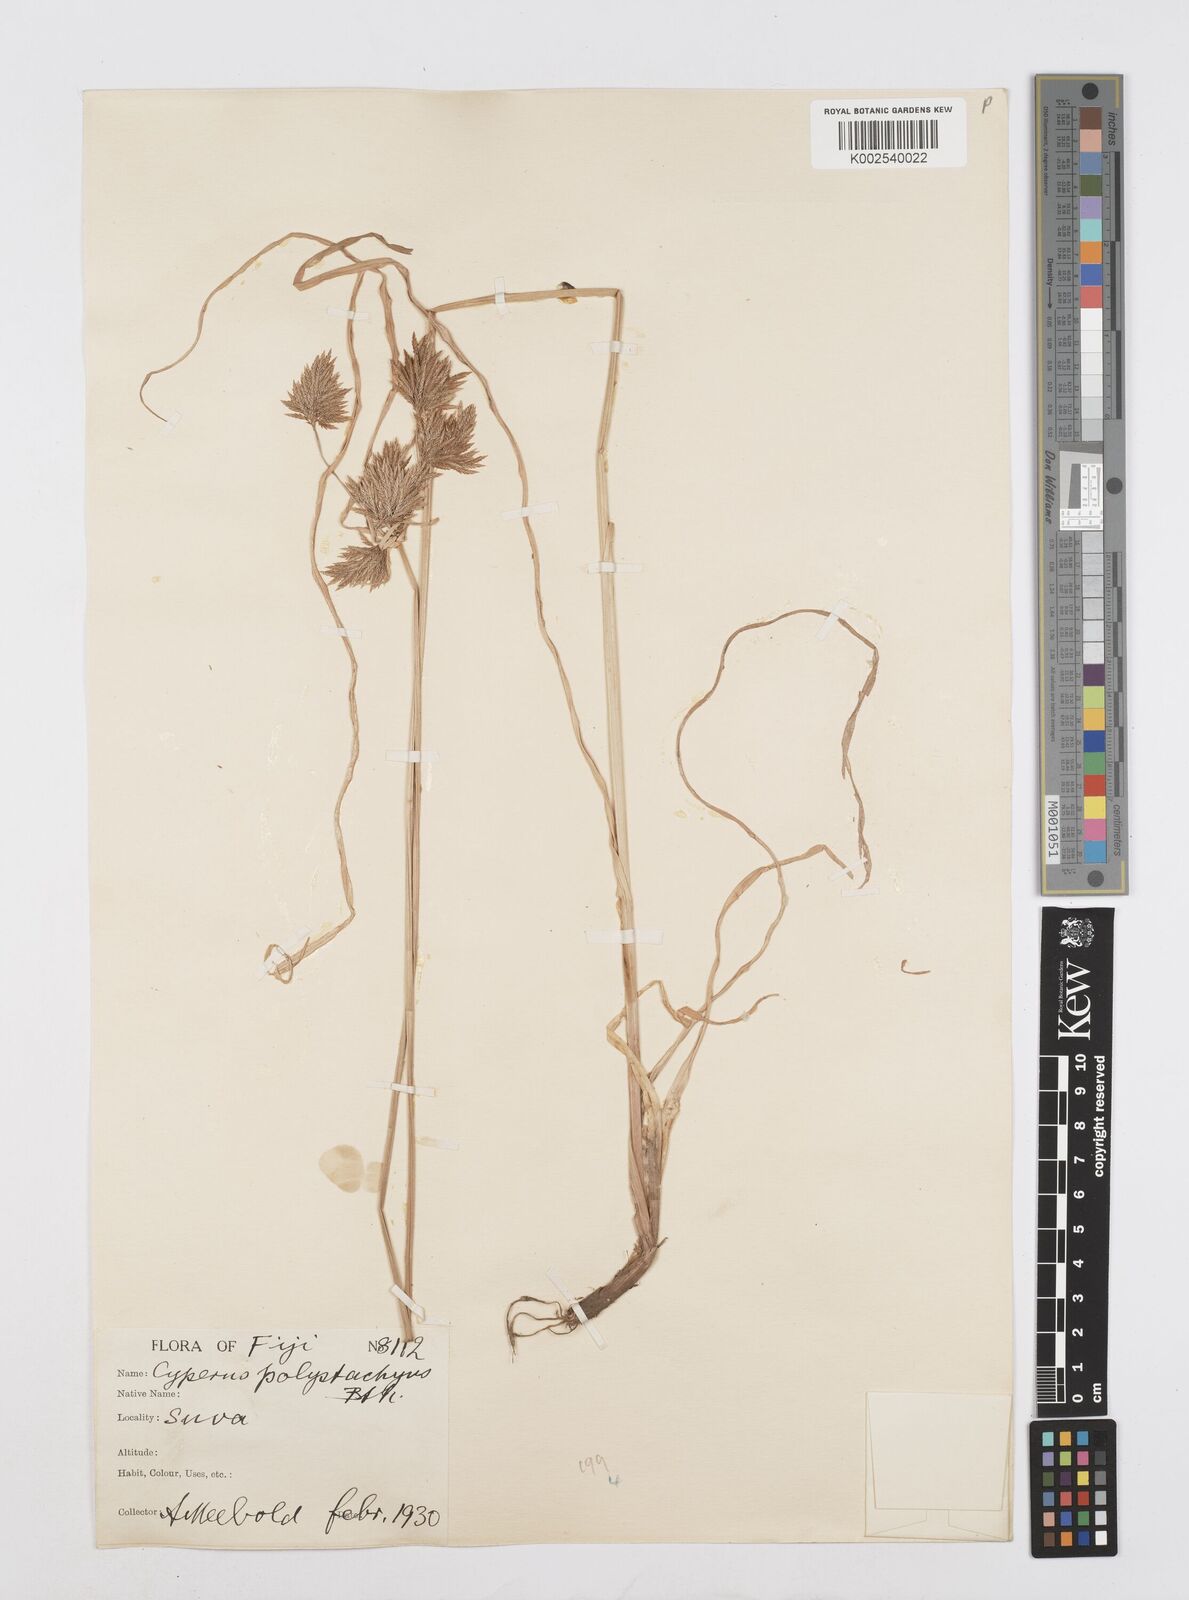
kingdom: Plantae
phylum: Tracheophyta
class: Liliopsida
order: Poales
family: Cyperaceae
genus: Cyperus
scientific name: Cyperus polystachyos
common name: Bunchy flat sedge
